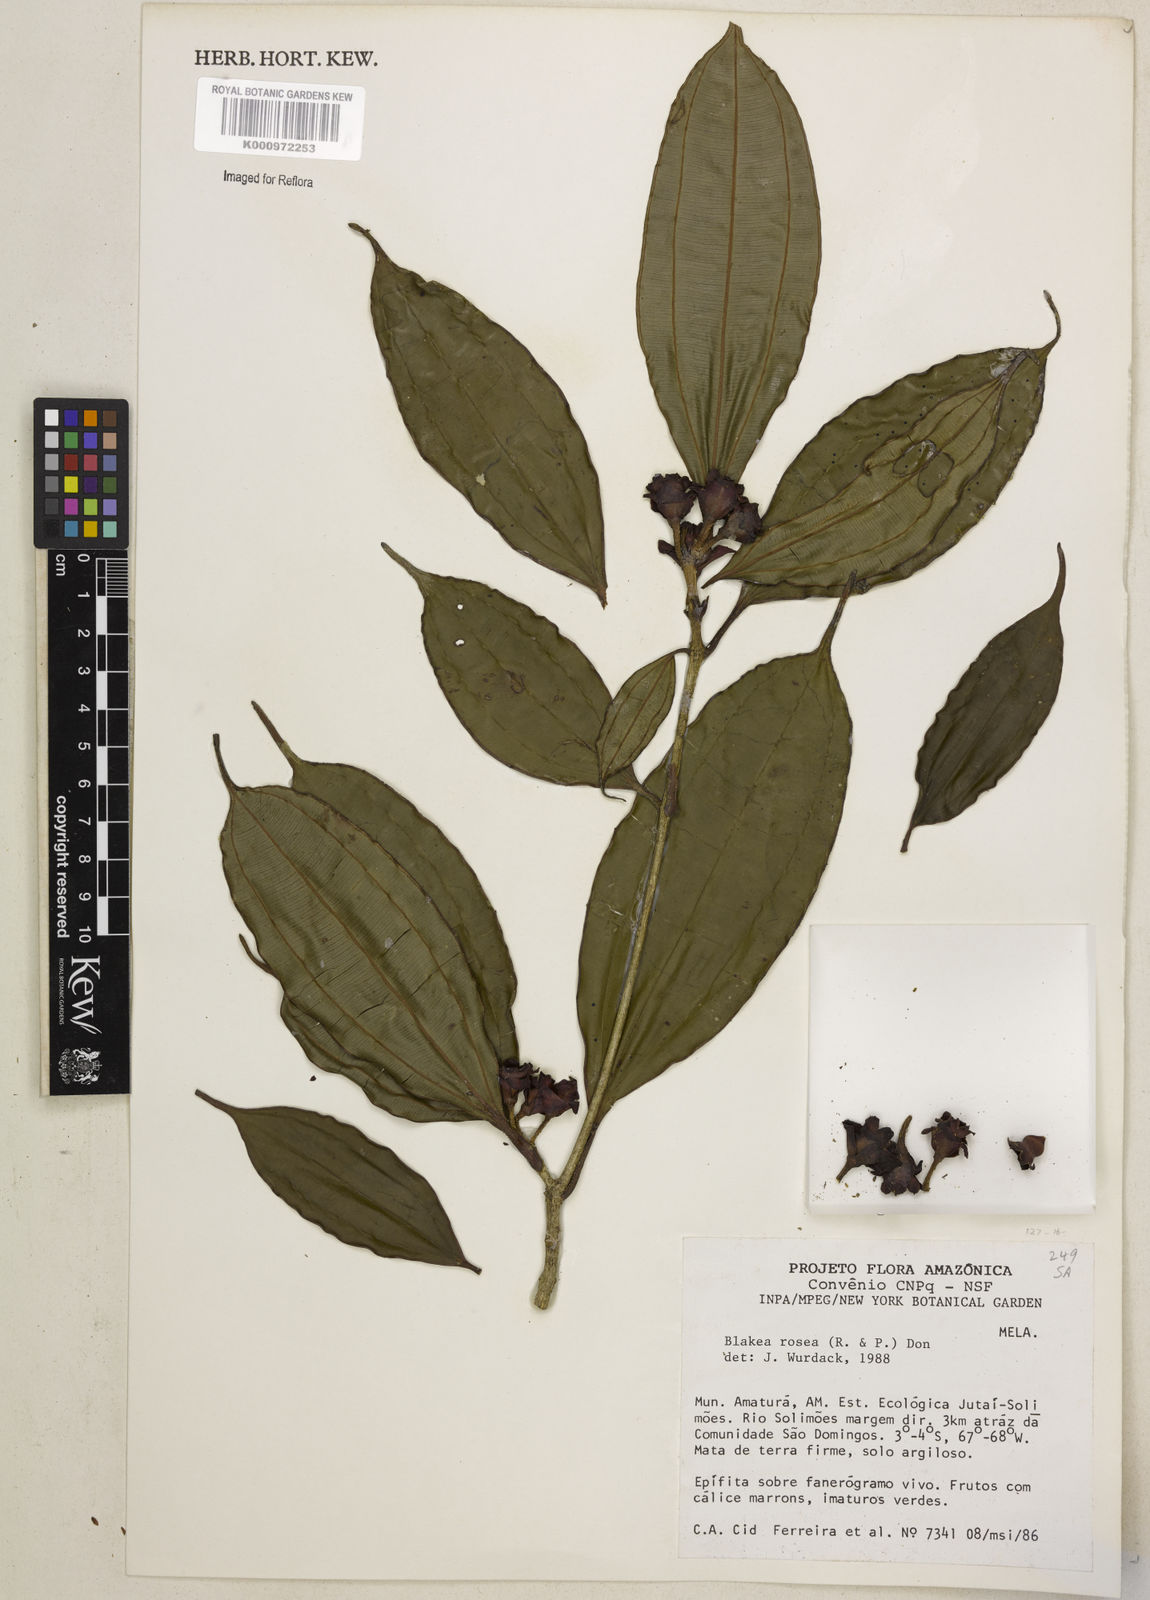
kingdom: Plantae
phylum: Tracheophyta
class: Magnoliopsida
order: Myrtales
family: Melastomataceae
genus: Blakea
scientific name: Blakea rosea
